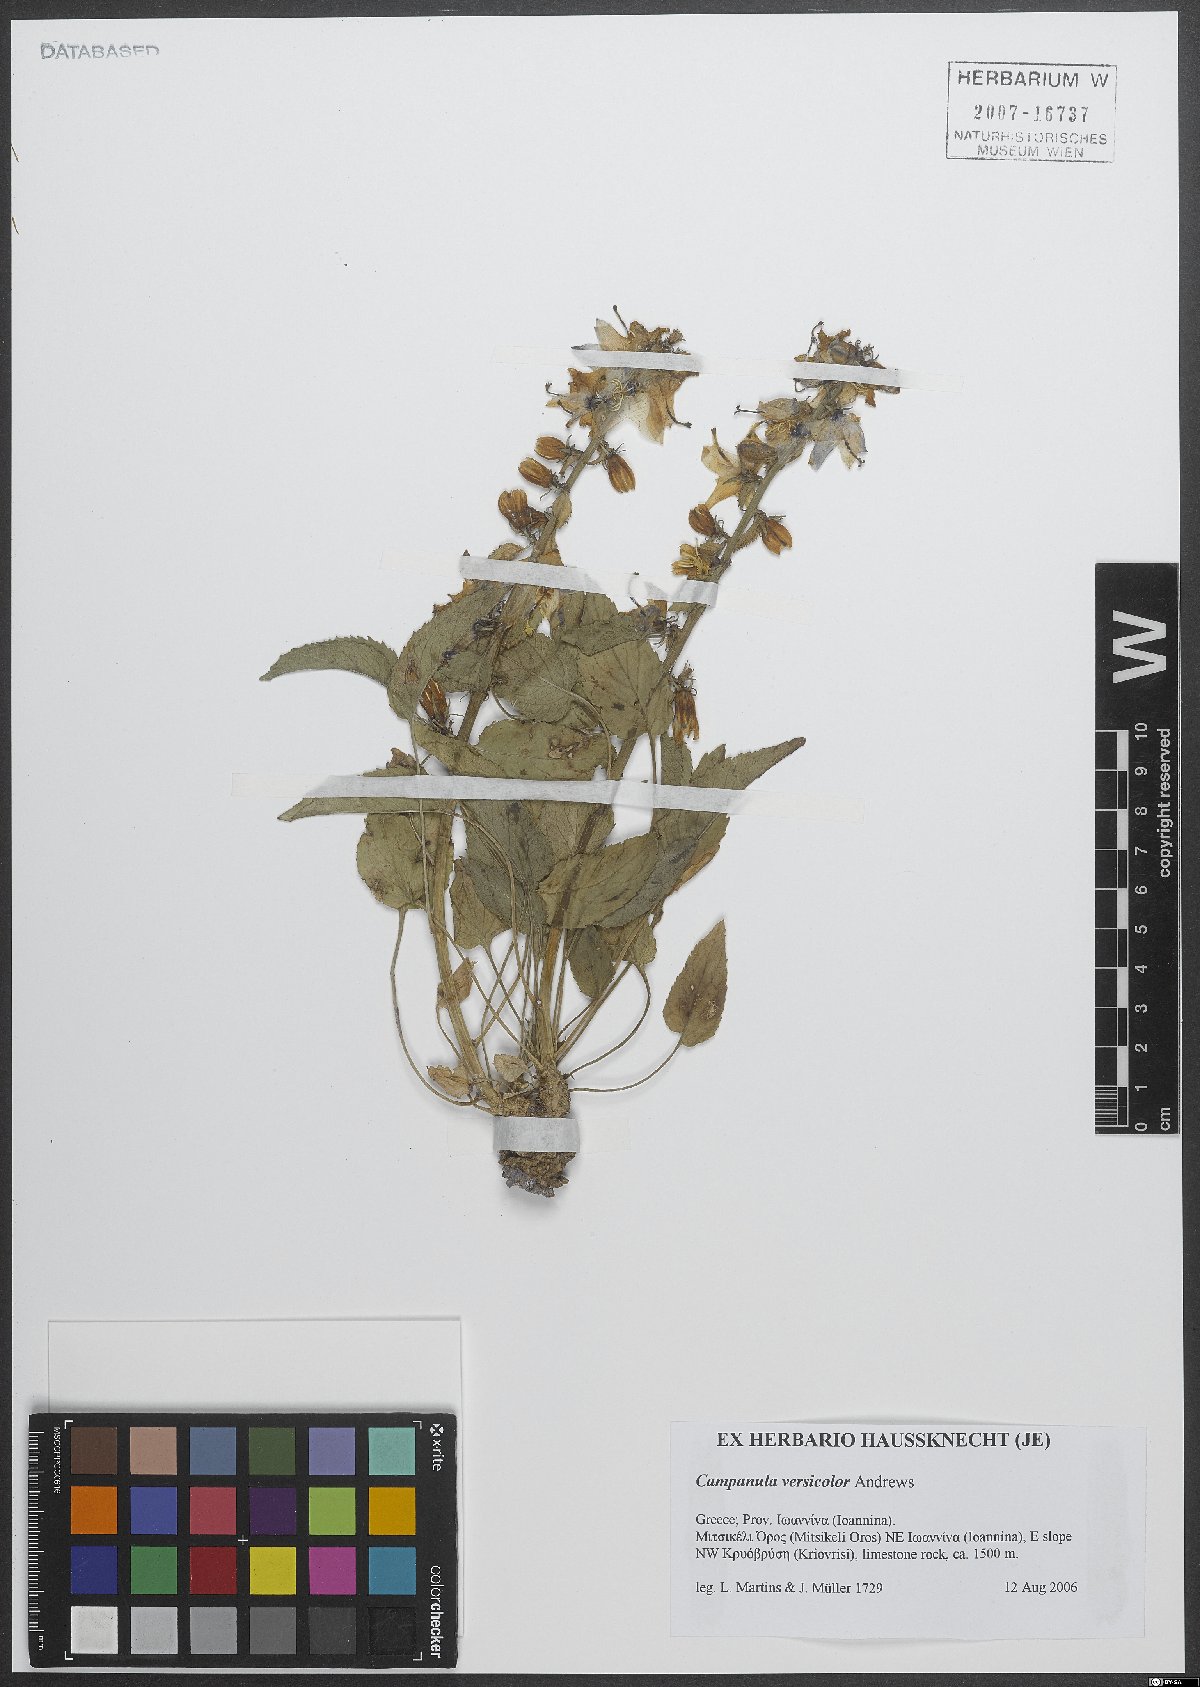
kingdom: Plantae
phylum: Tracheophyta
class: Magnoliopsida
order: Asterales
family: Campanulaceae
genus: Campanula
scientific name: Campanula versicolor
